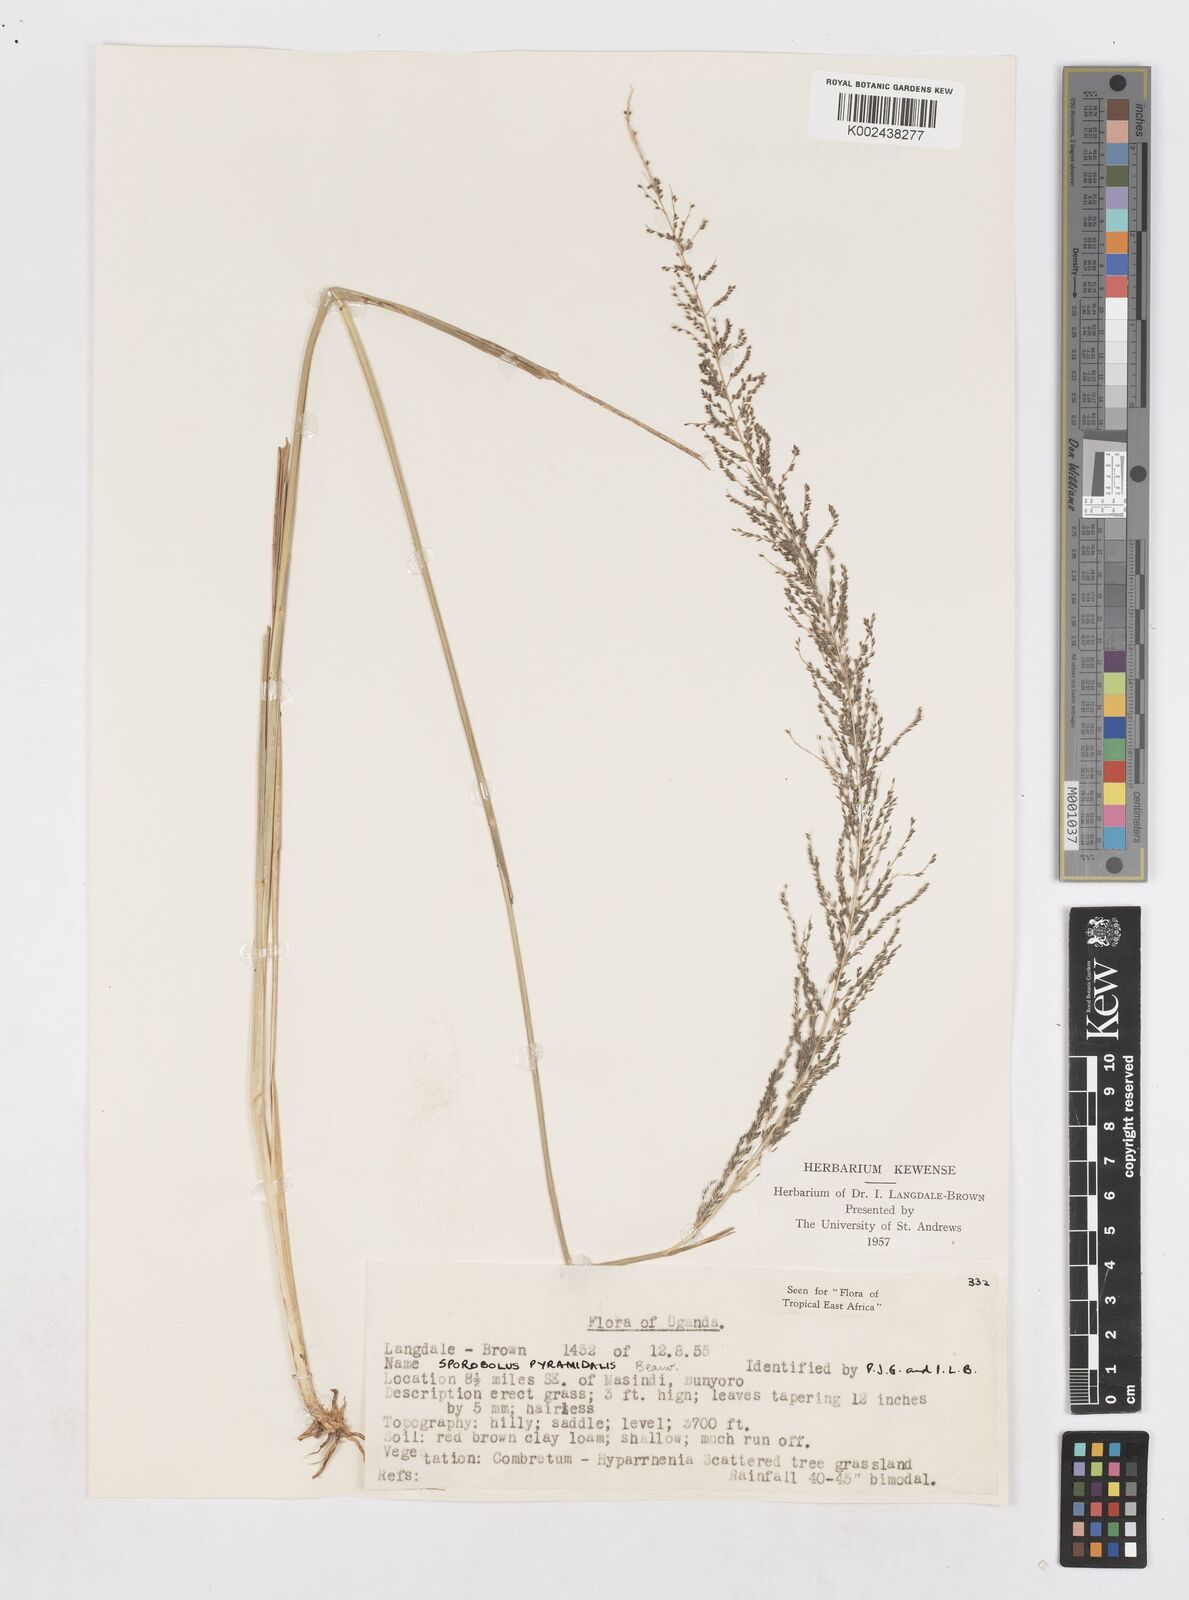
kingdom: Plantae
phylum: Tracheophyta
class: Liliopsida
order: Poales
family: Poaceae
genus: Sporobolus
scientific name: Sporobolus pyramidalis
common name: West indian dropseed
